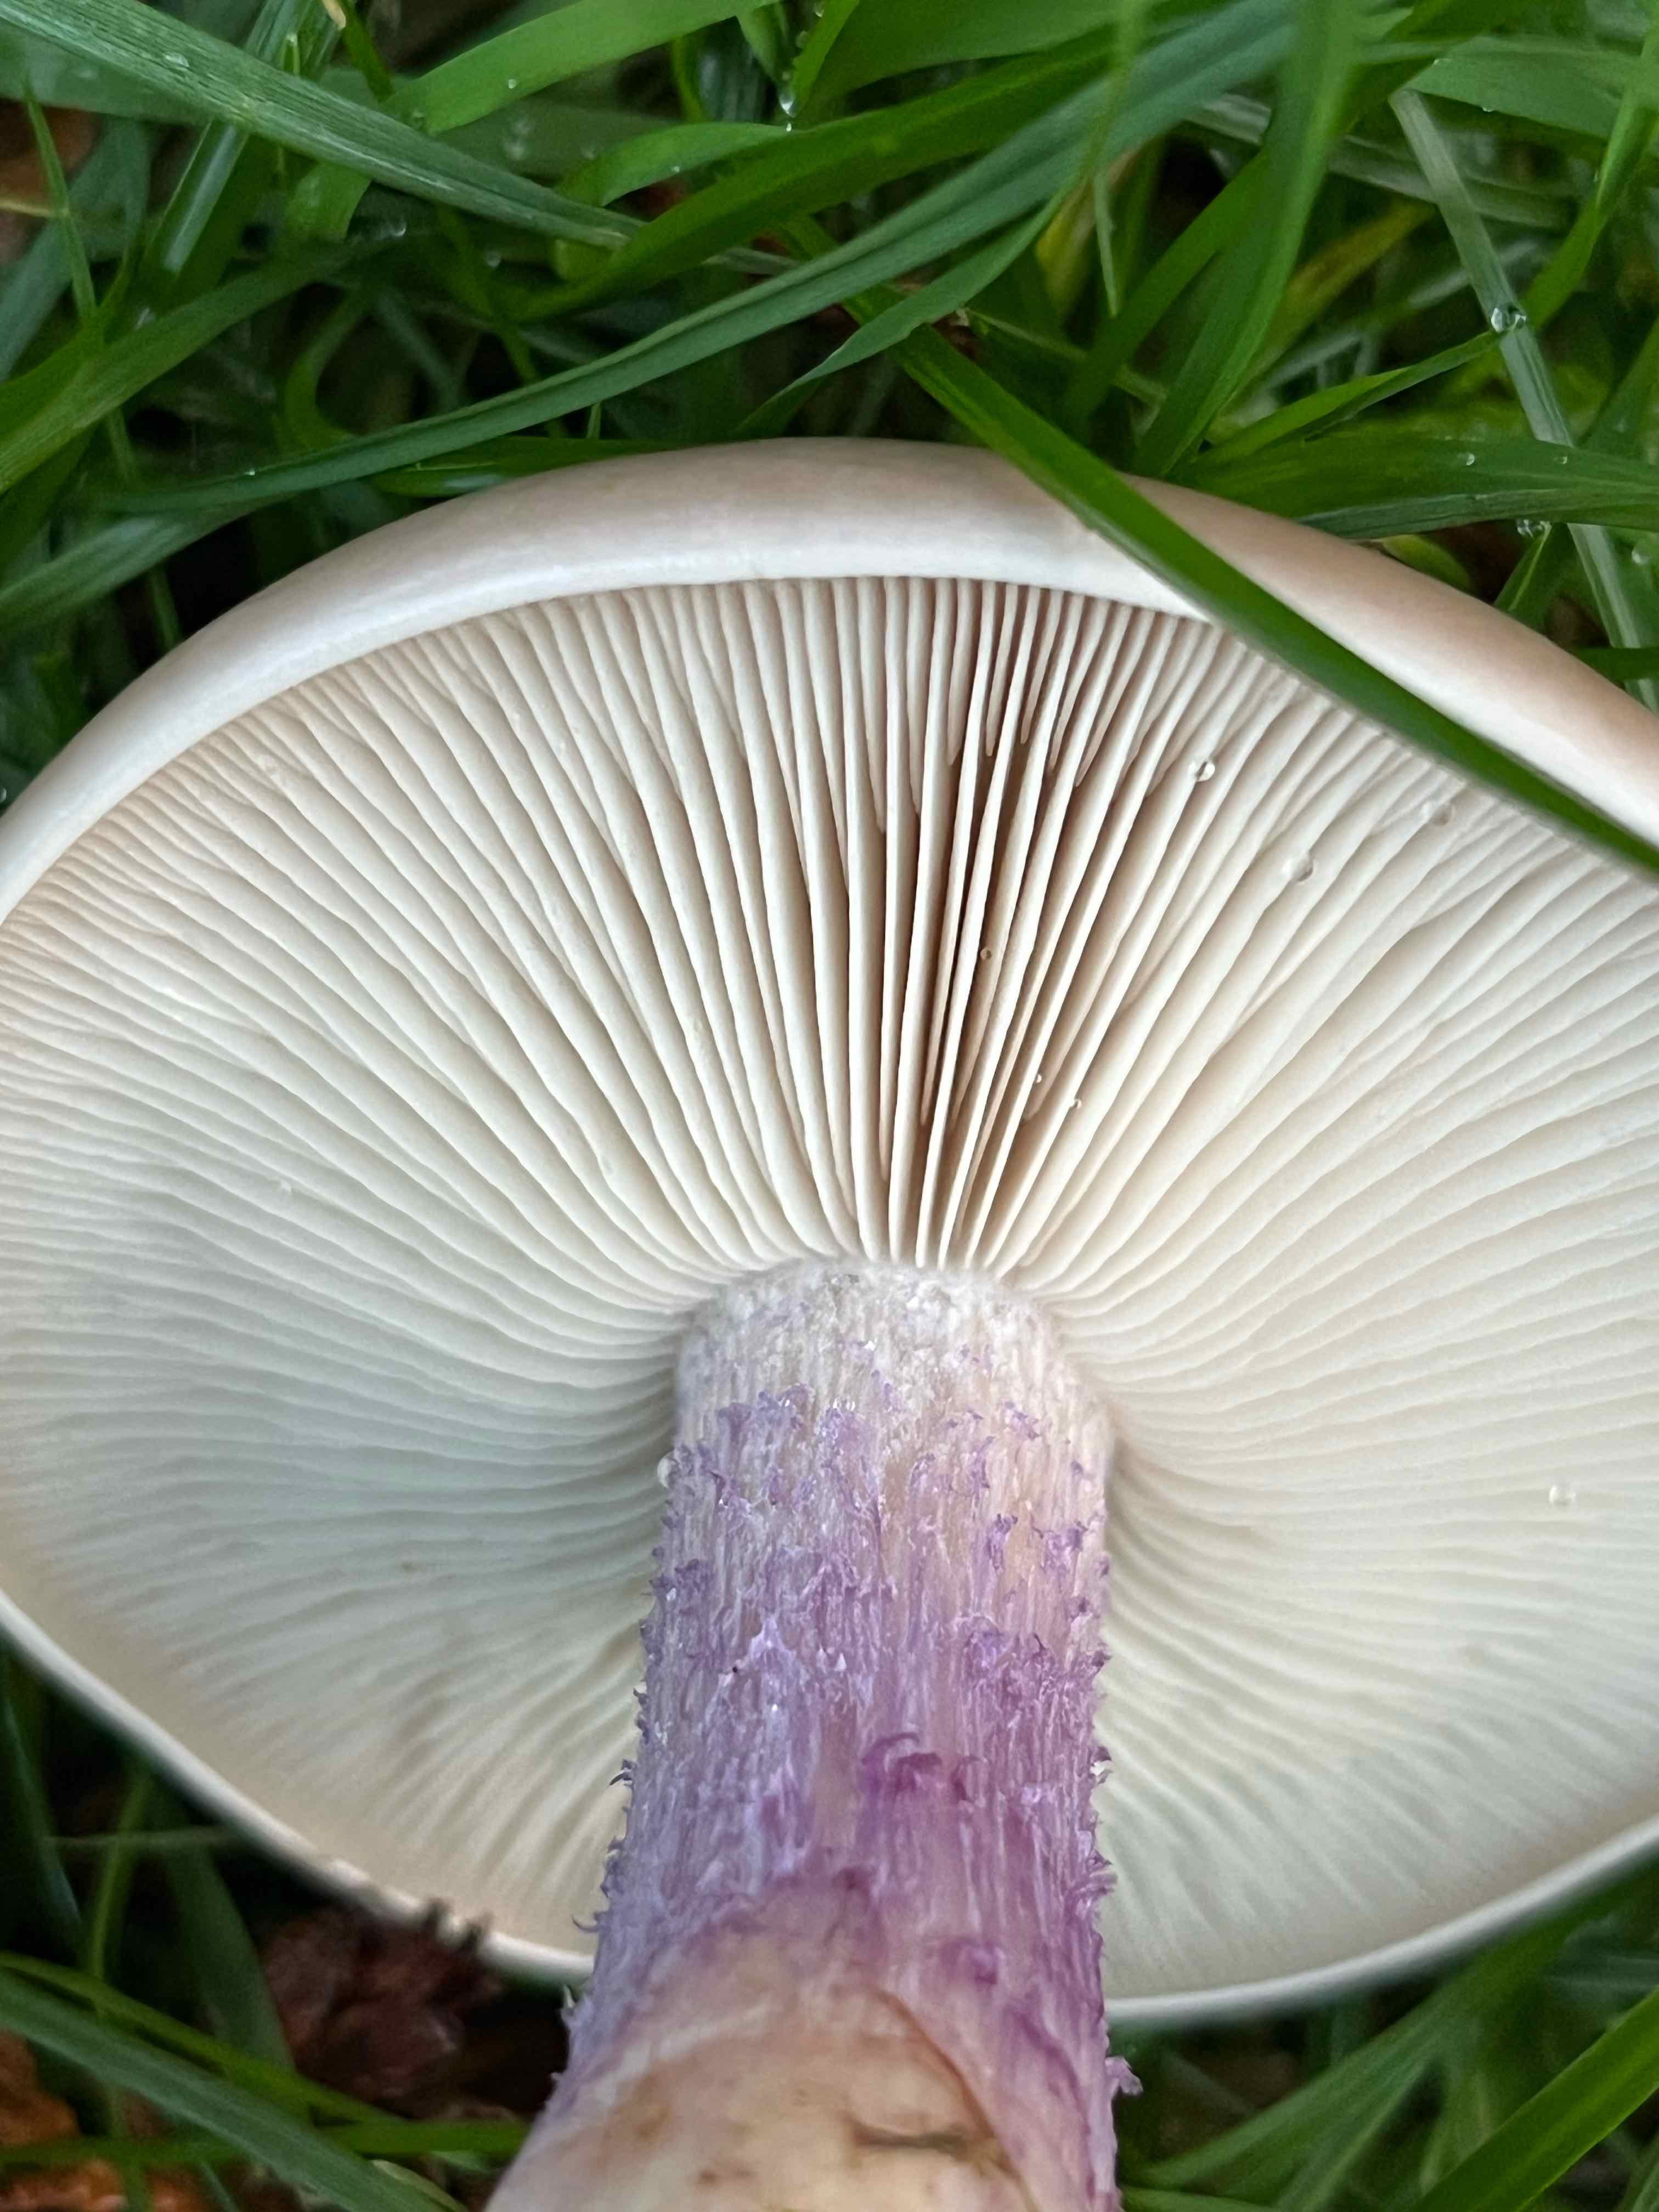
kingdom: Fungi
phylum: Basidiomycota
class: Agaricomycetes
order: Agaricales
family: Tricholomataceae
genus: Lepista
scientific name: Lepista personata
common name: bleg hekseringshat
